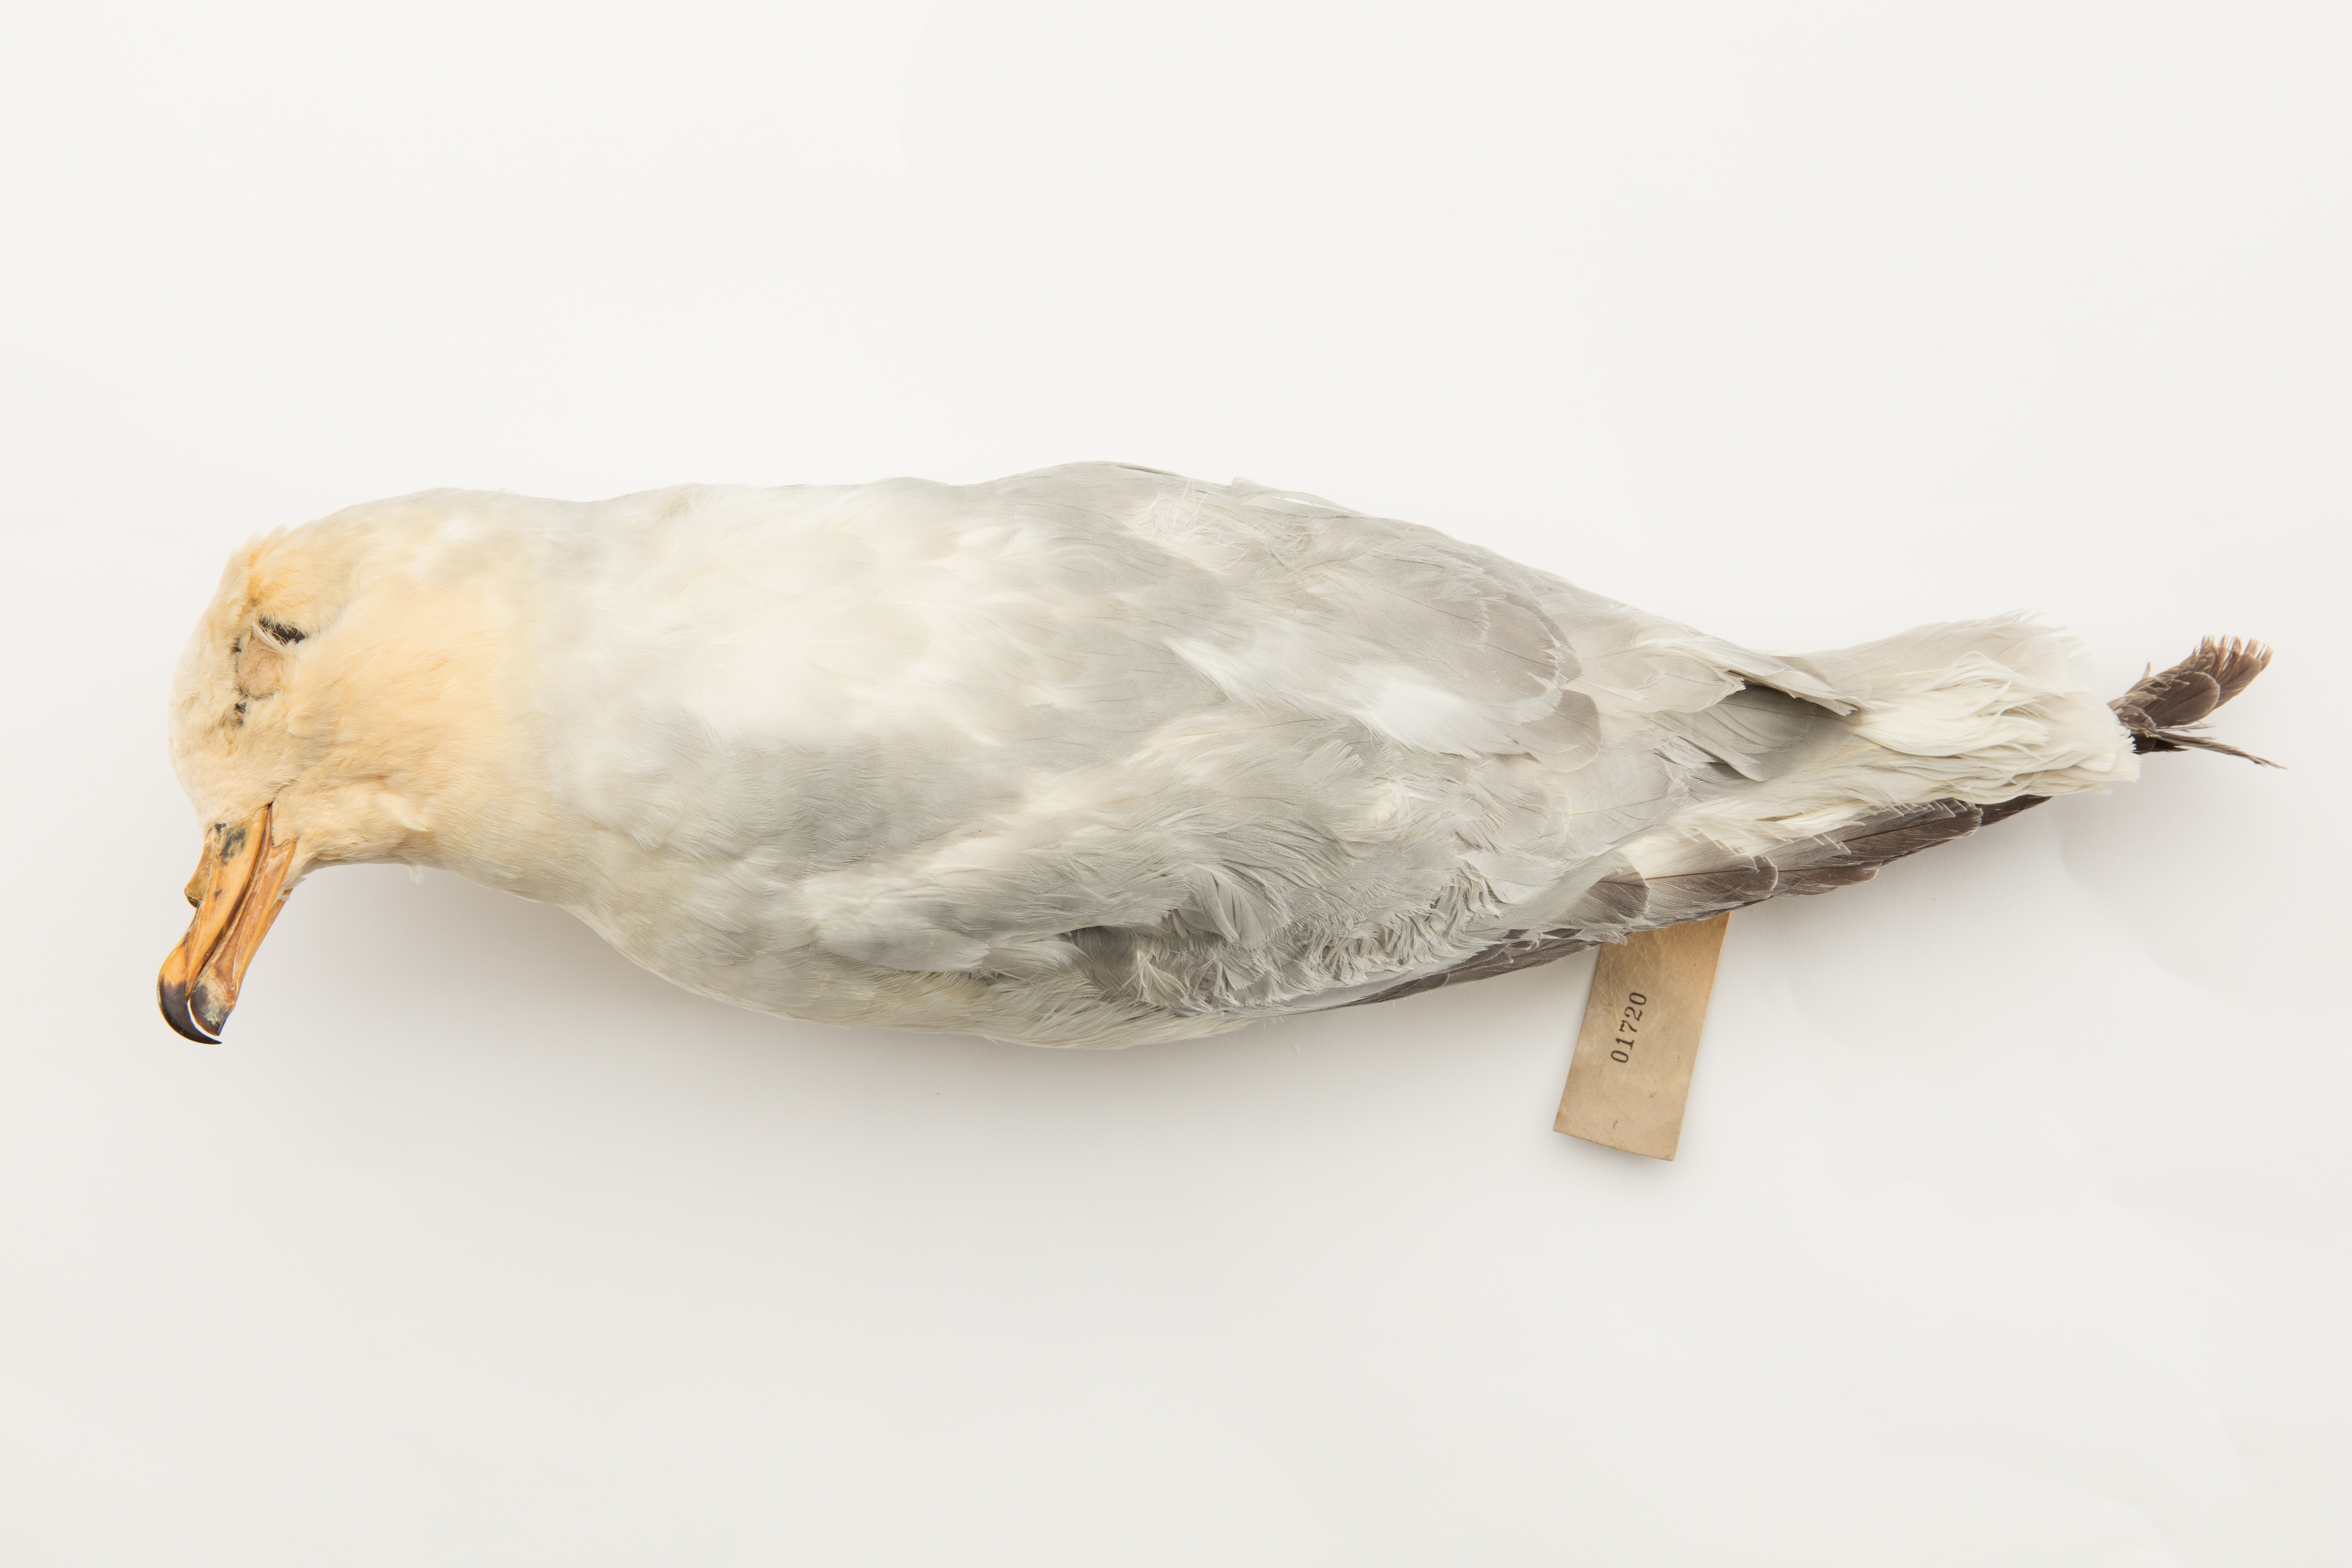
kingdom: Animalia
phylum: Chordata
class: Aves
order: Procellariiformes
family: Procellariidae
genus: Fulmarus
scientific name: Fulmarus glacialoides
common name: Southern fulmar
